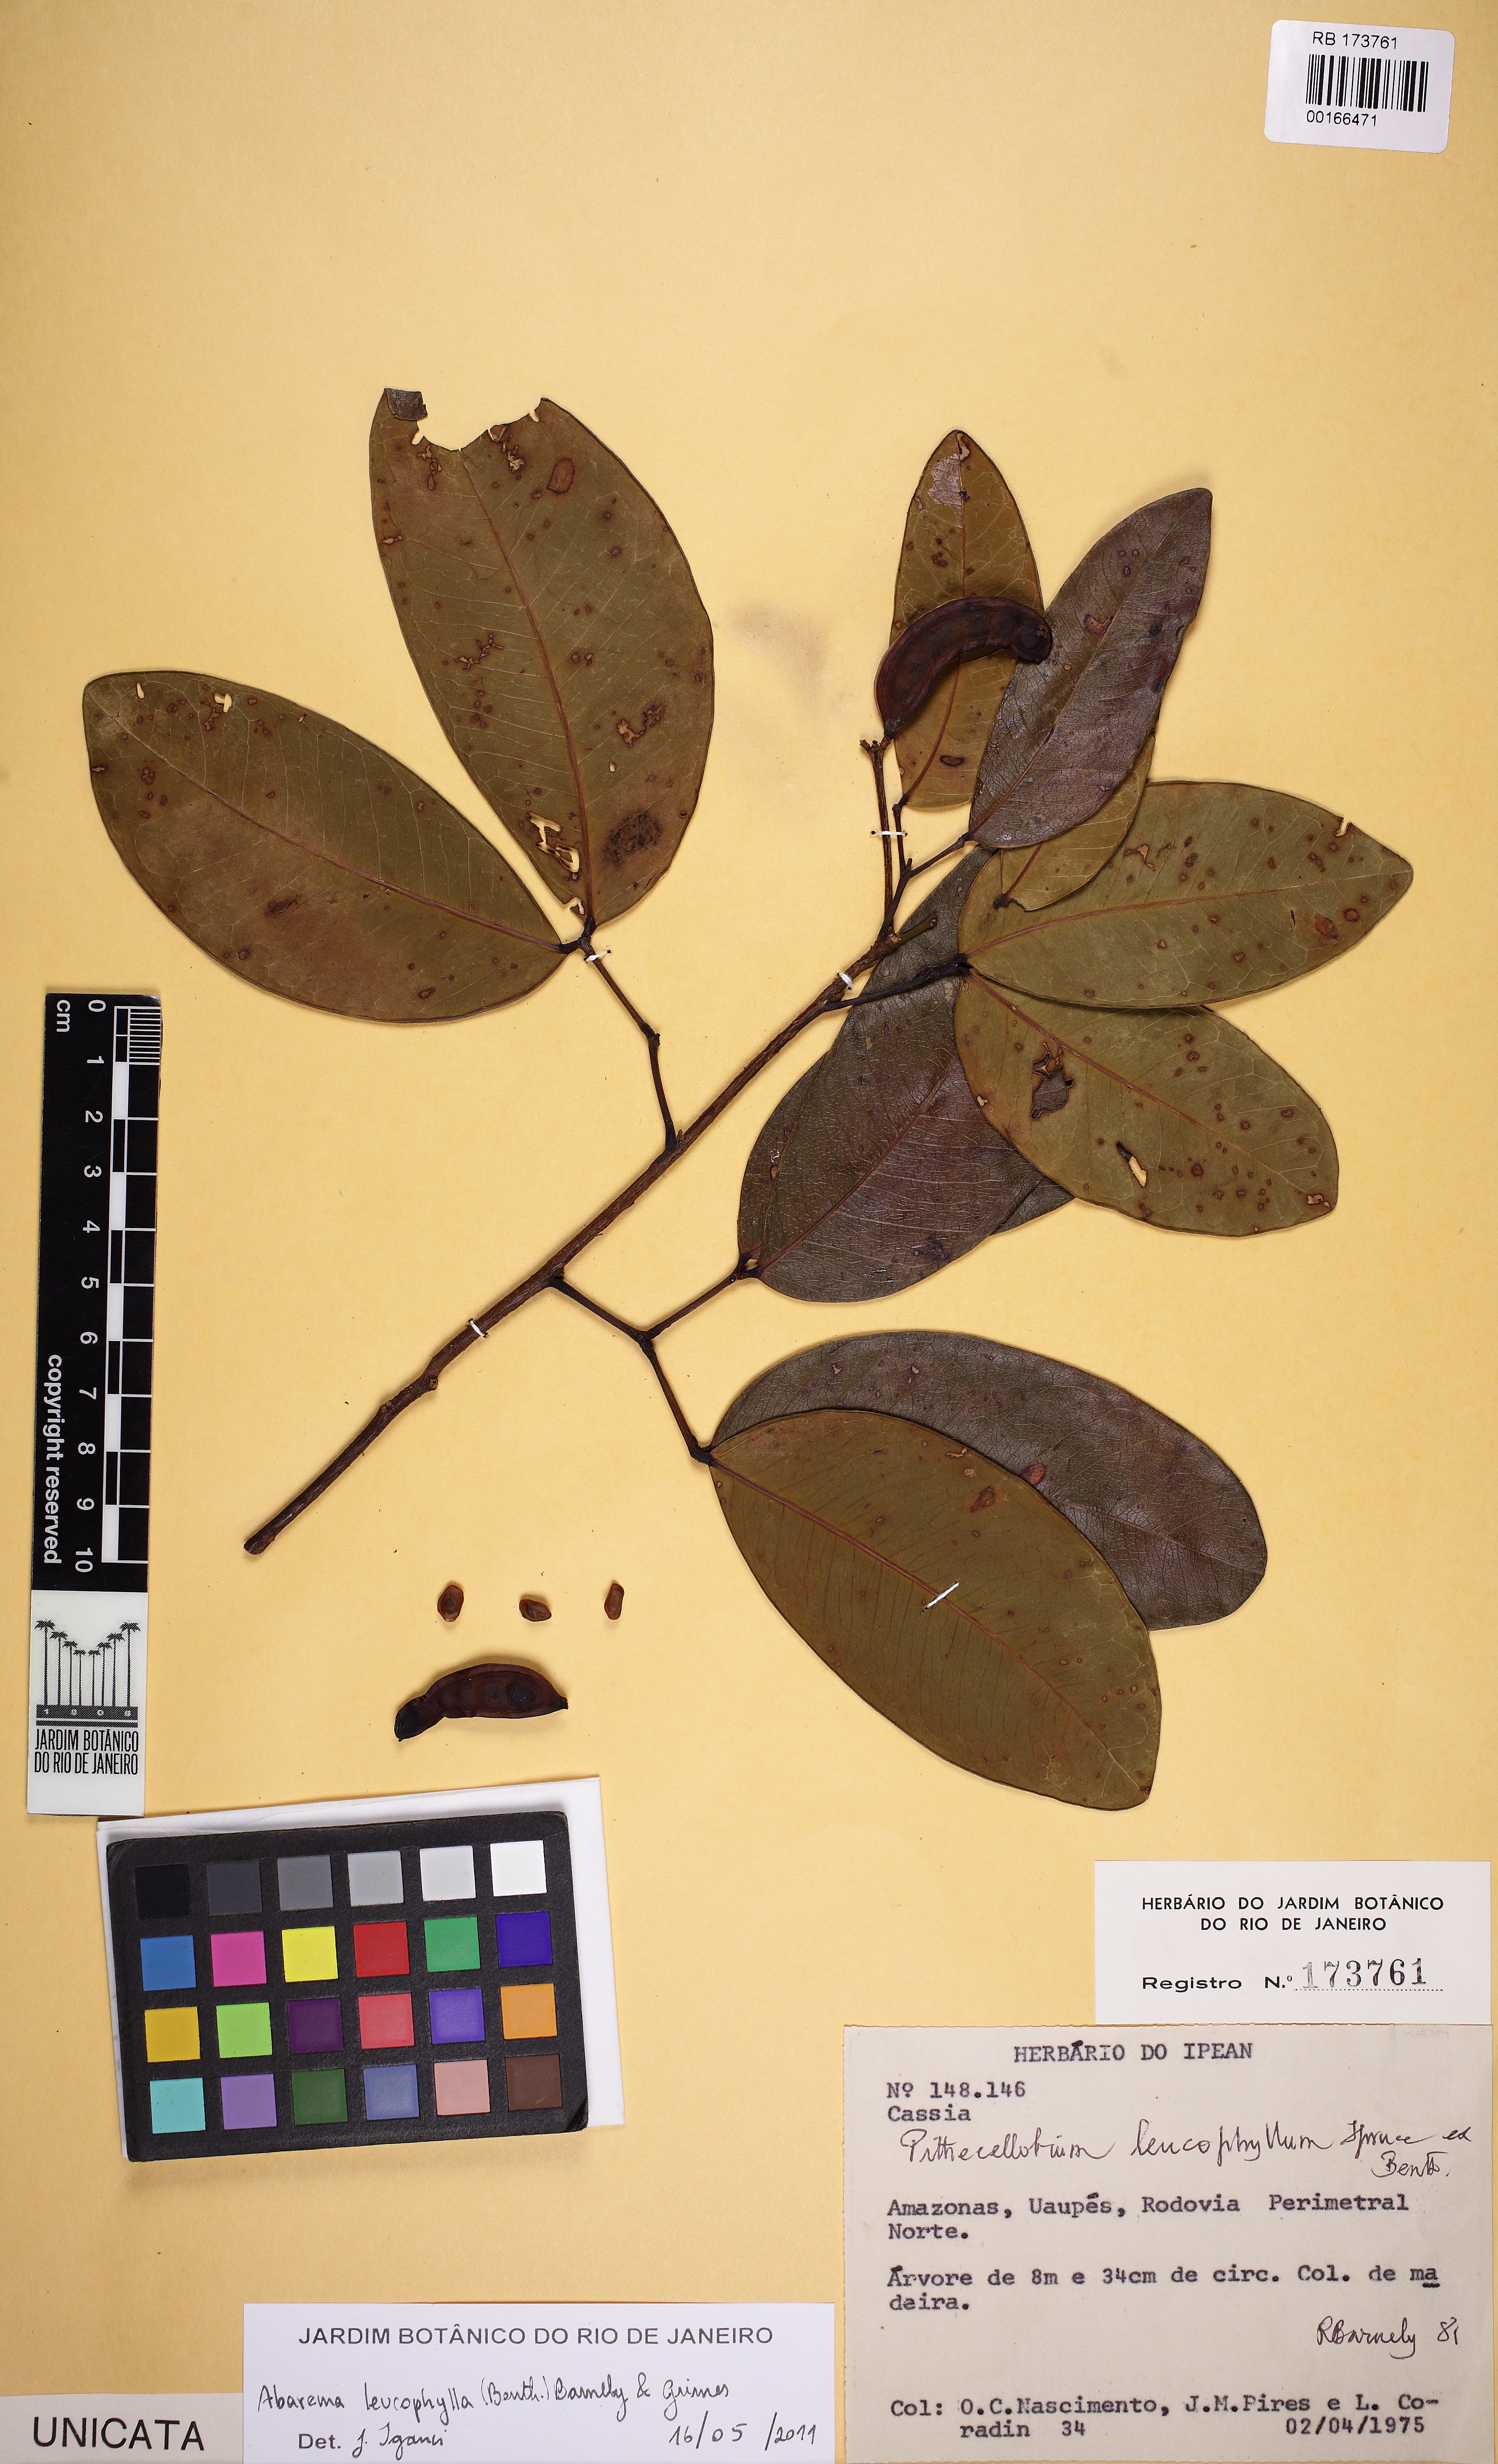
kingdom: Plantae
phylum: Tracheophyta
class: Magnoliopsida
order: Fabales
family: Fabaceae
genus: Jupunba
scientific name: Jupunba langsdorffii
